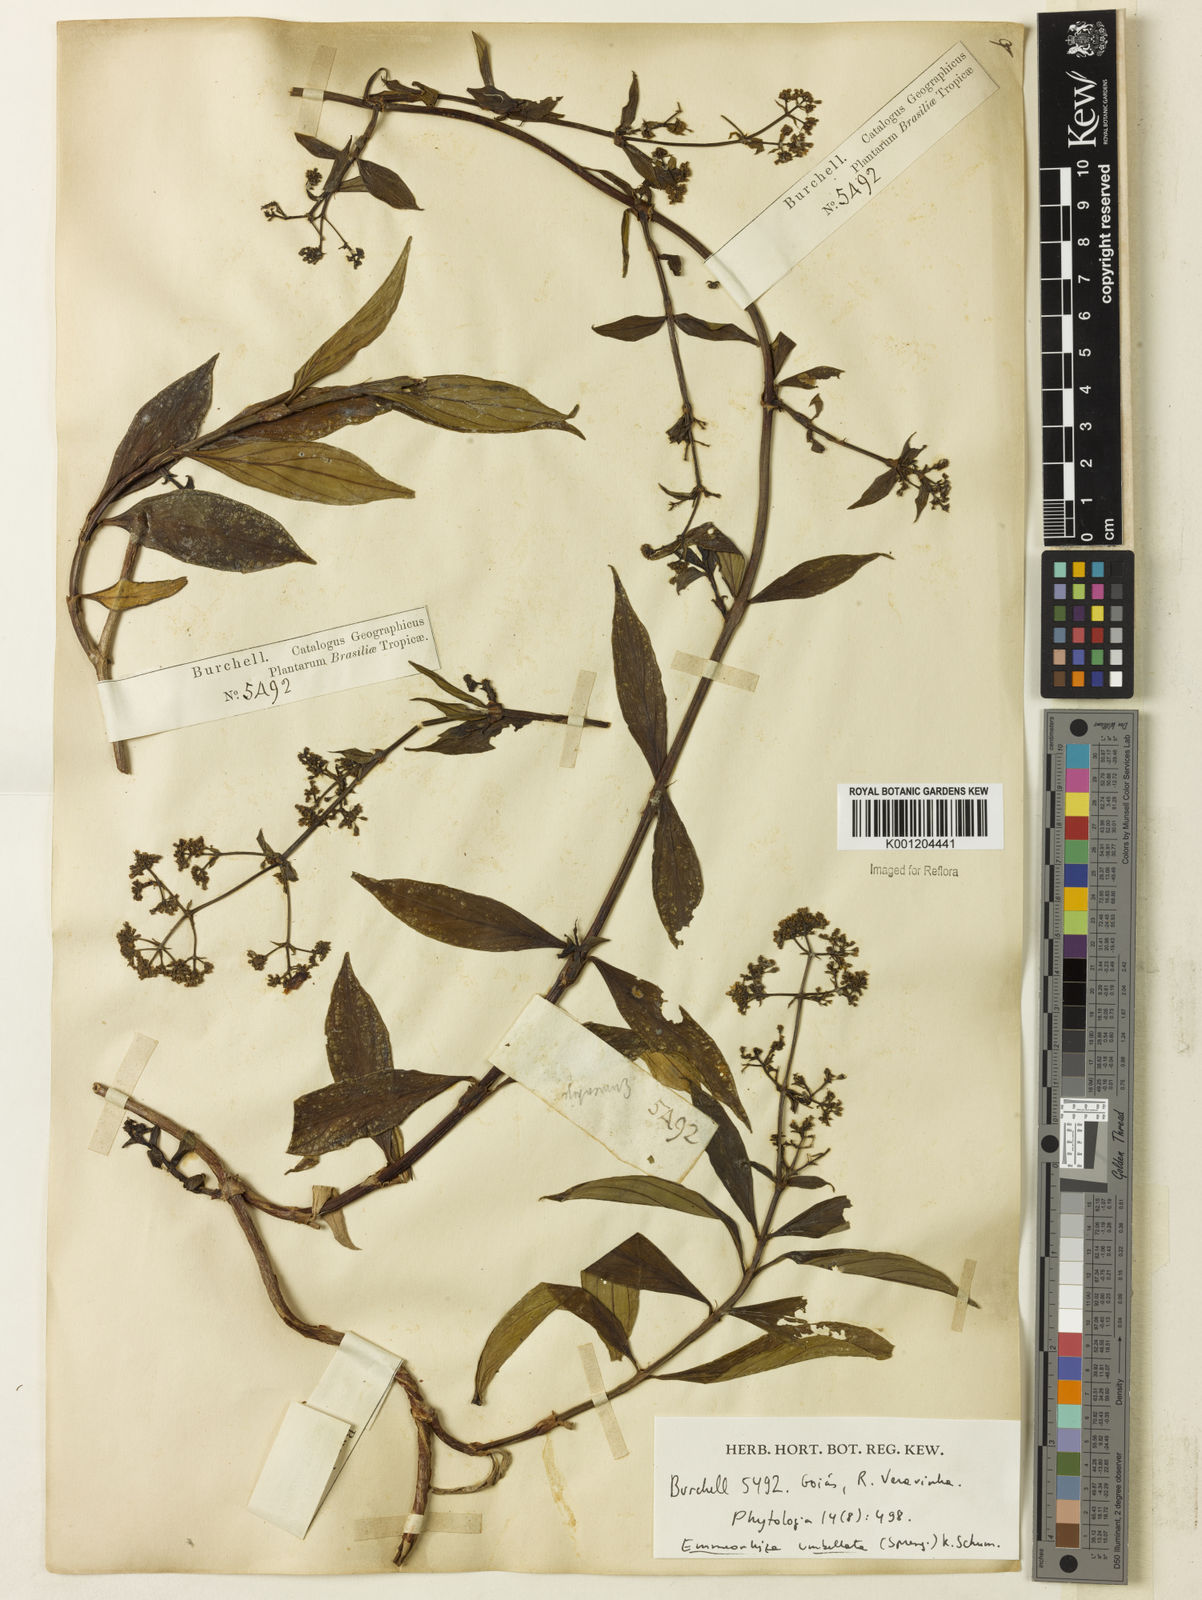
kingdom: Plantae
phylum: Tracheophyta
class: Magnoliopsida
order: Gentianales
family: Rubiaceae
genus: Emmeorhiza
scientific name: Emmeorhiza umbellata
